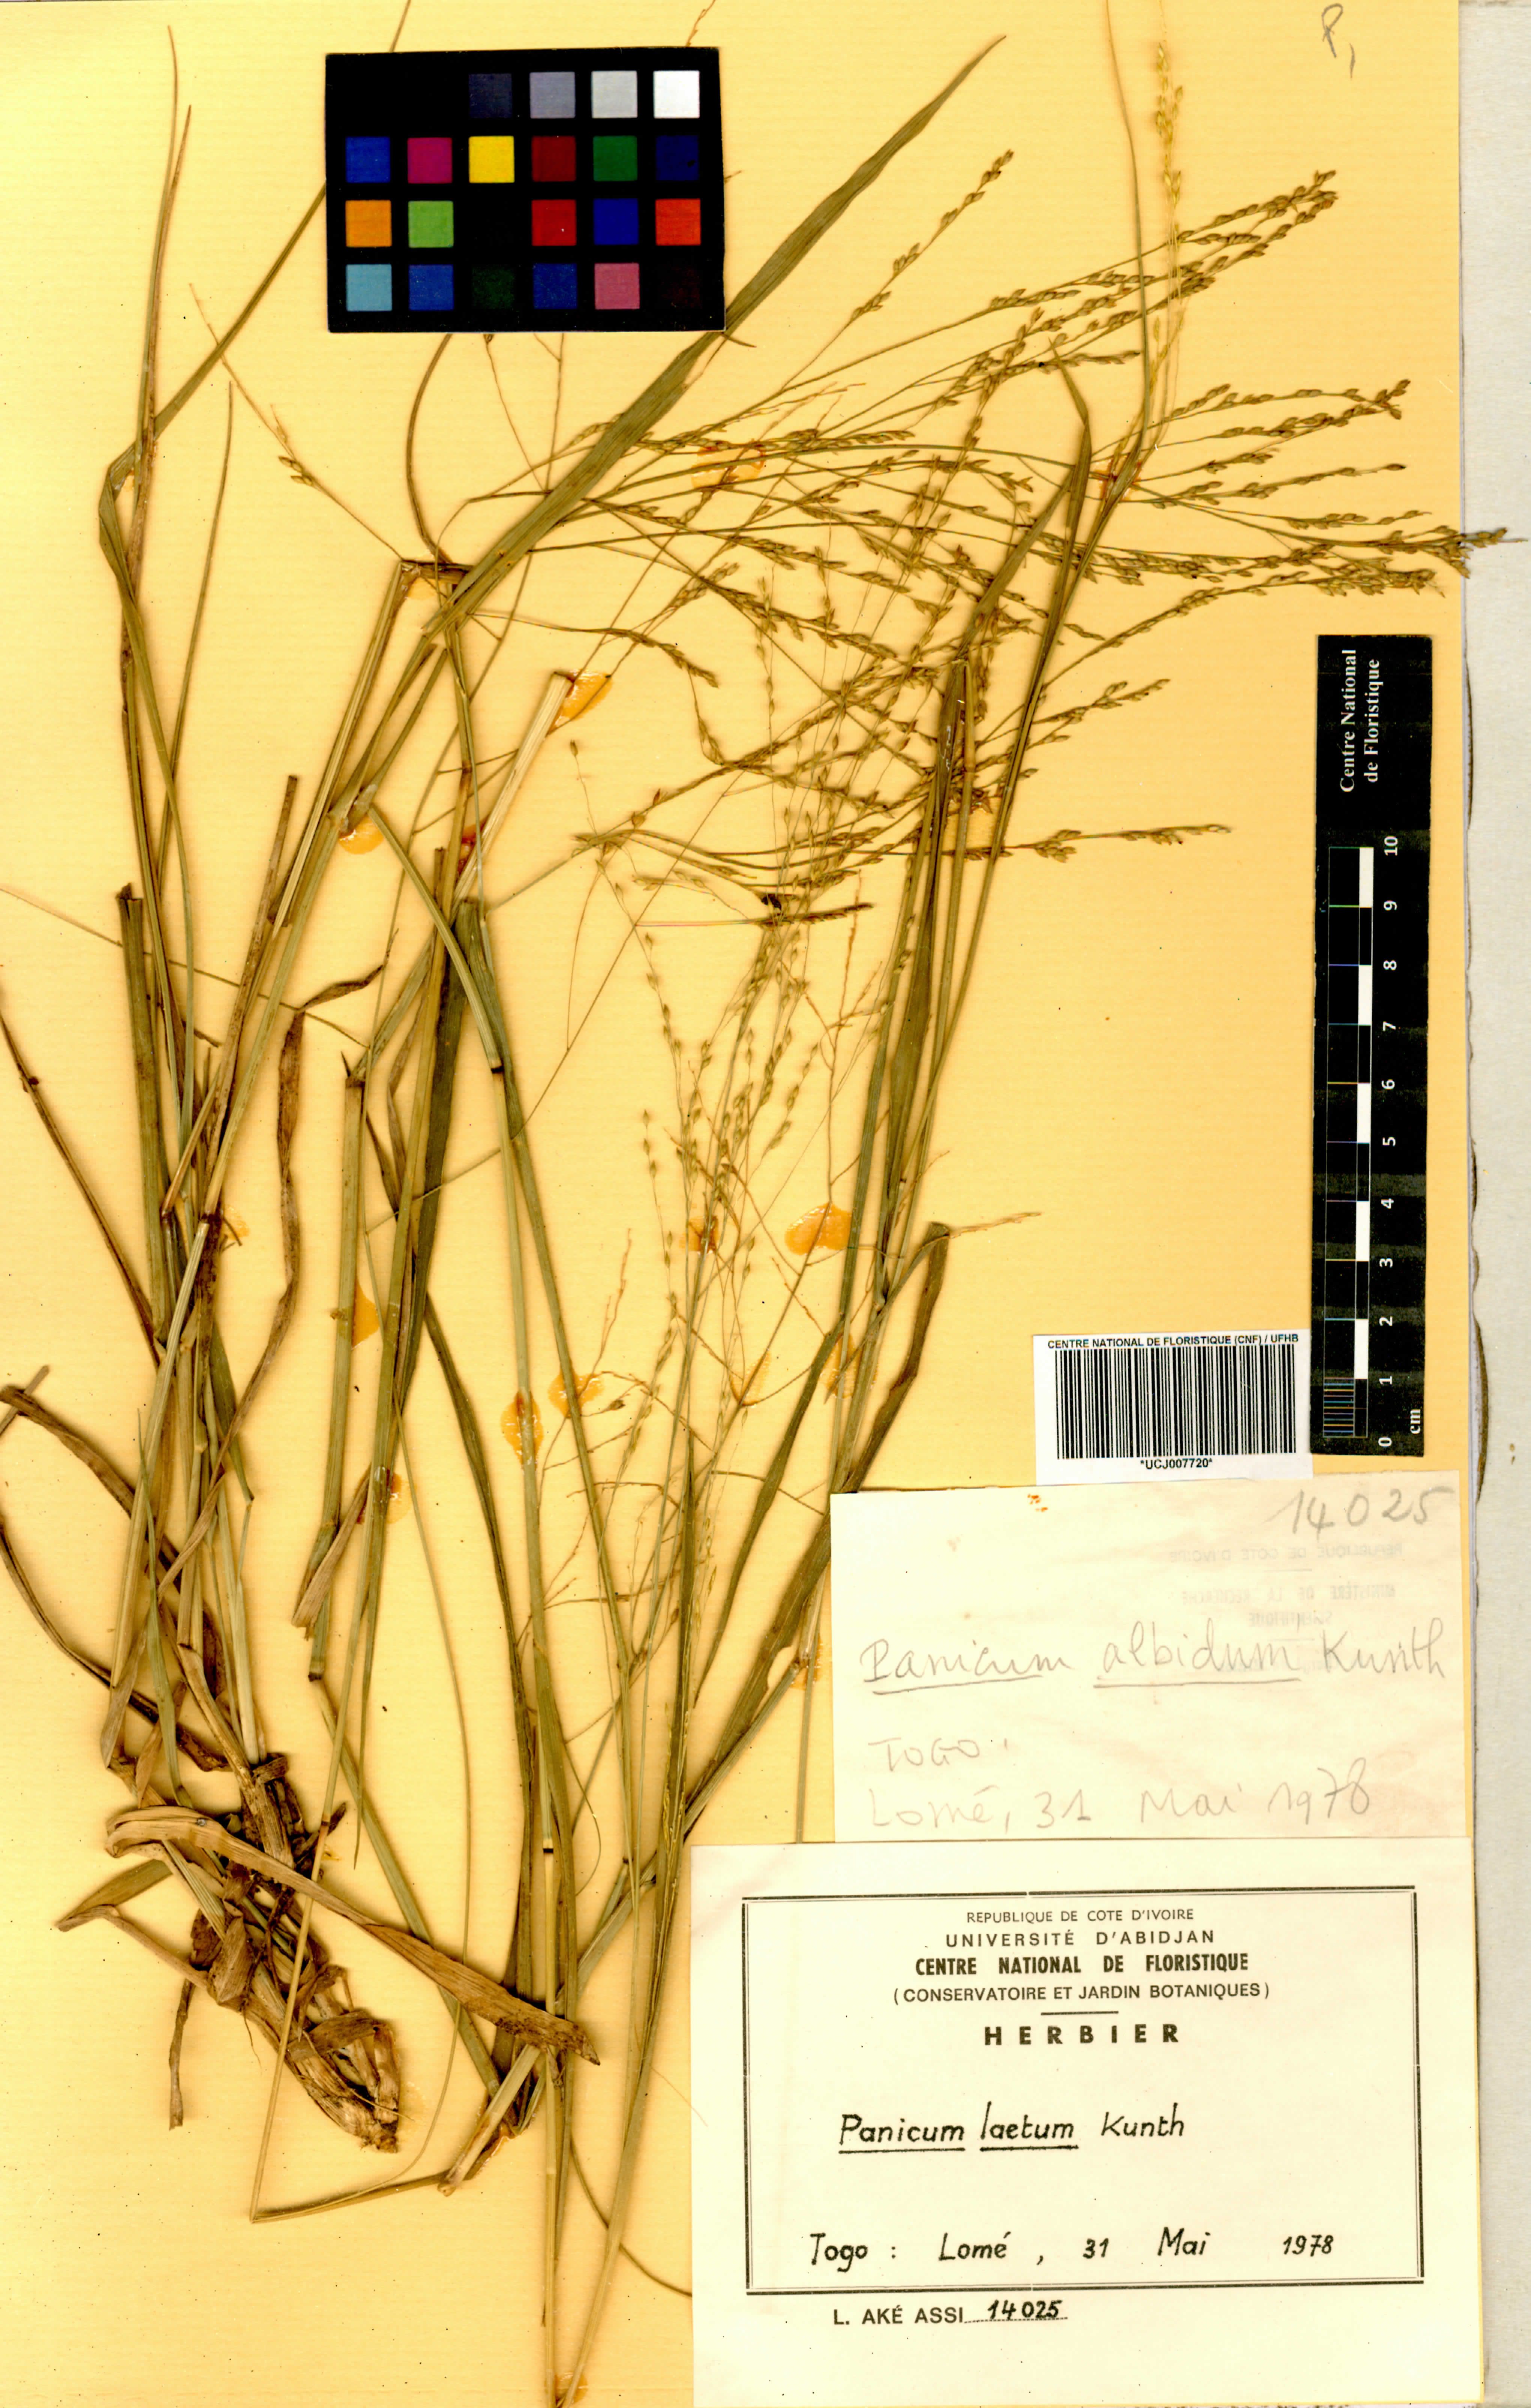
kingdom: Plantae
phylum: Tracheophyta
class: Liliopsida
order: Poales
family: Poaceae
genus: Panicum
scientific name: Panicum laetum
